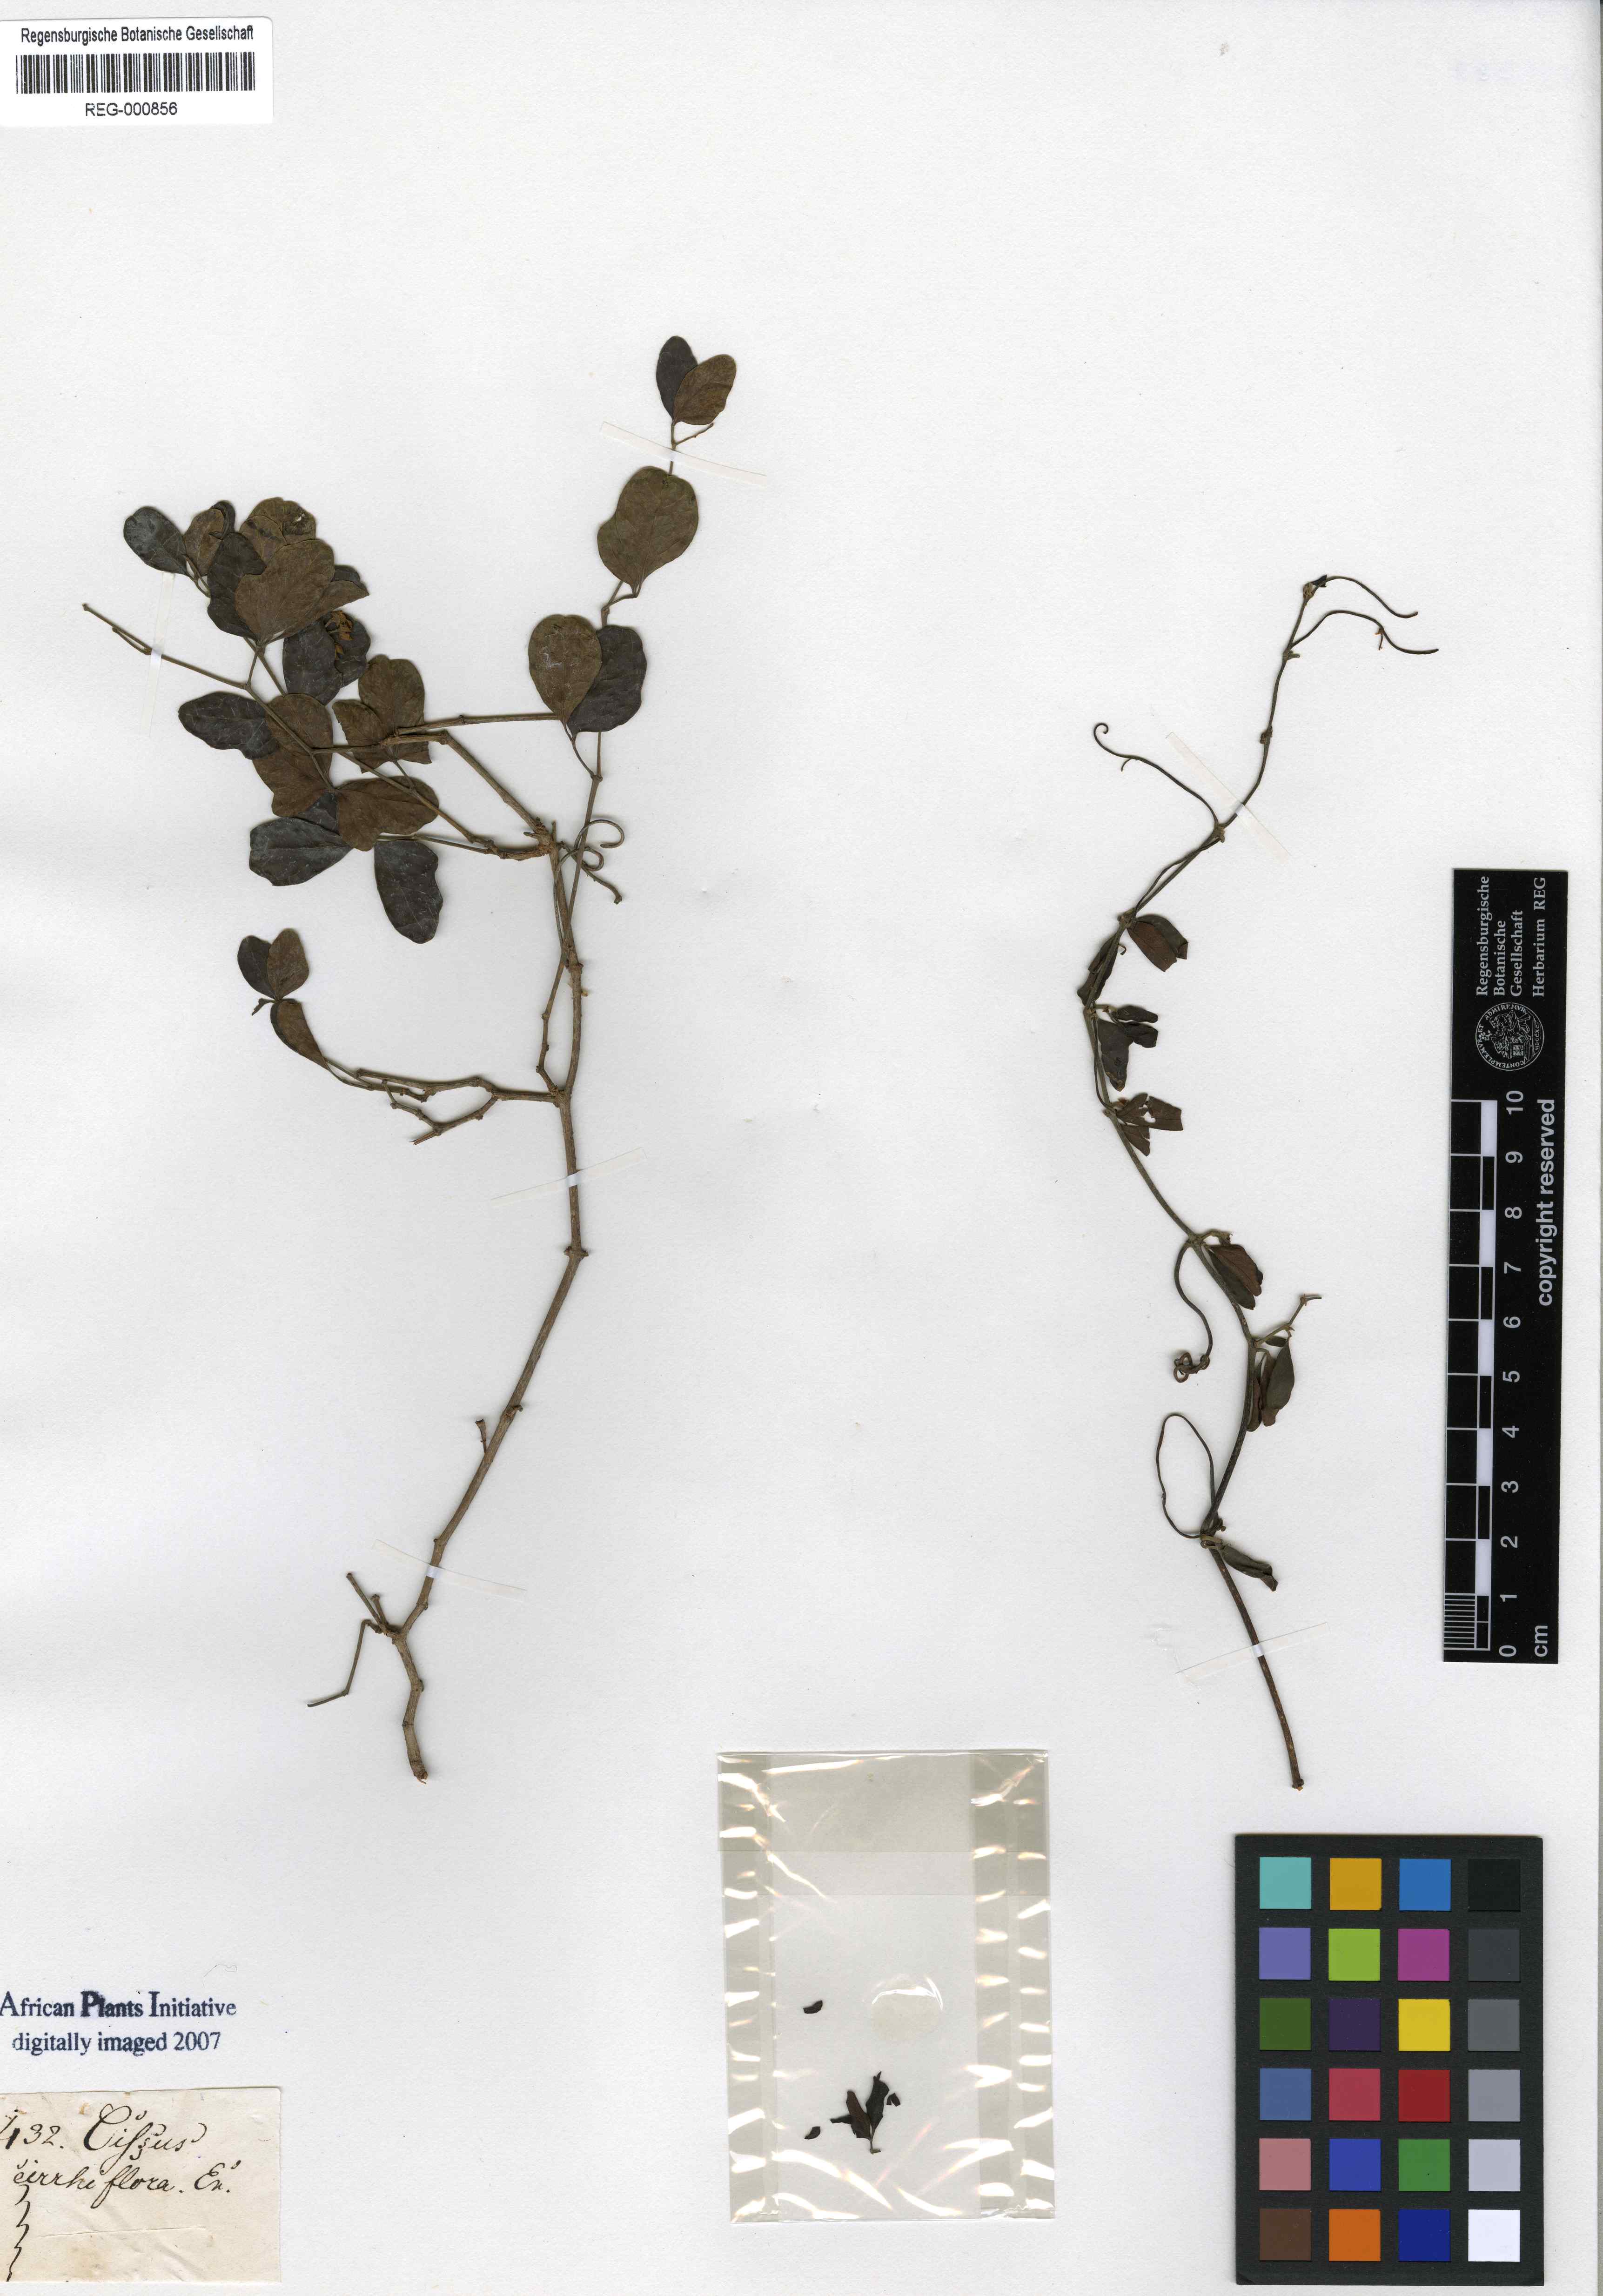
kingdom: Plantae
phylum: Tracheophyta
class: Magnoliopsida
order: Vitales
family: Vitaceae
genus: Rhoicissus
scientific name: Rhoicissus tridentata
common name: Common forest grape
